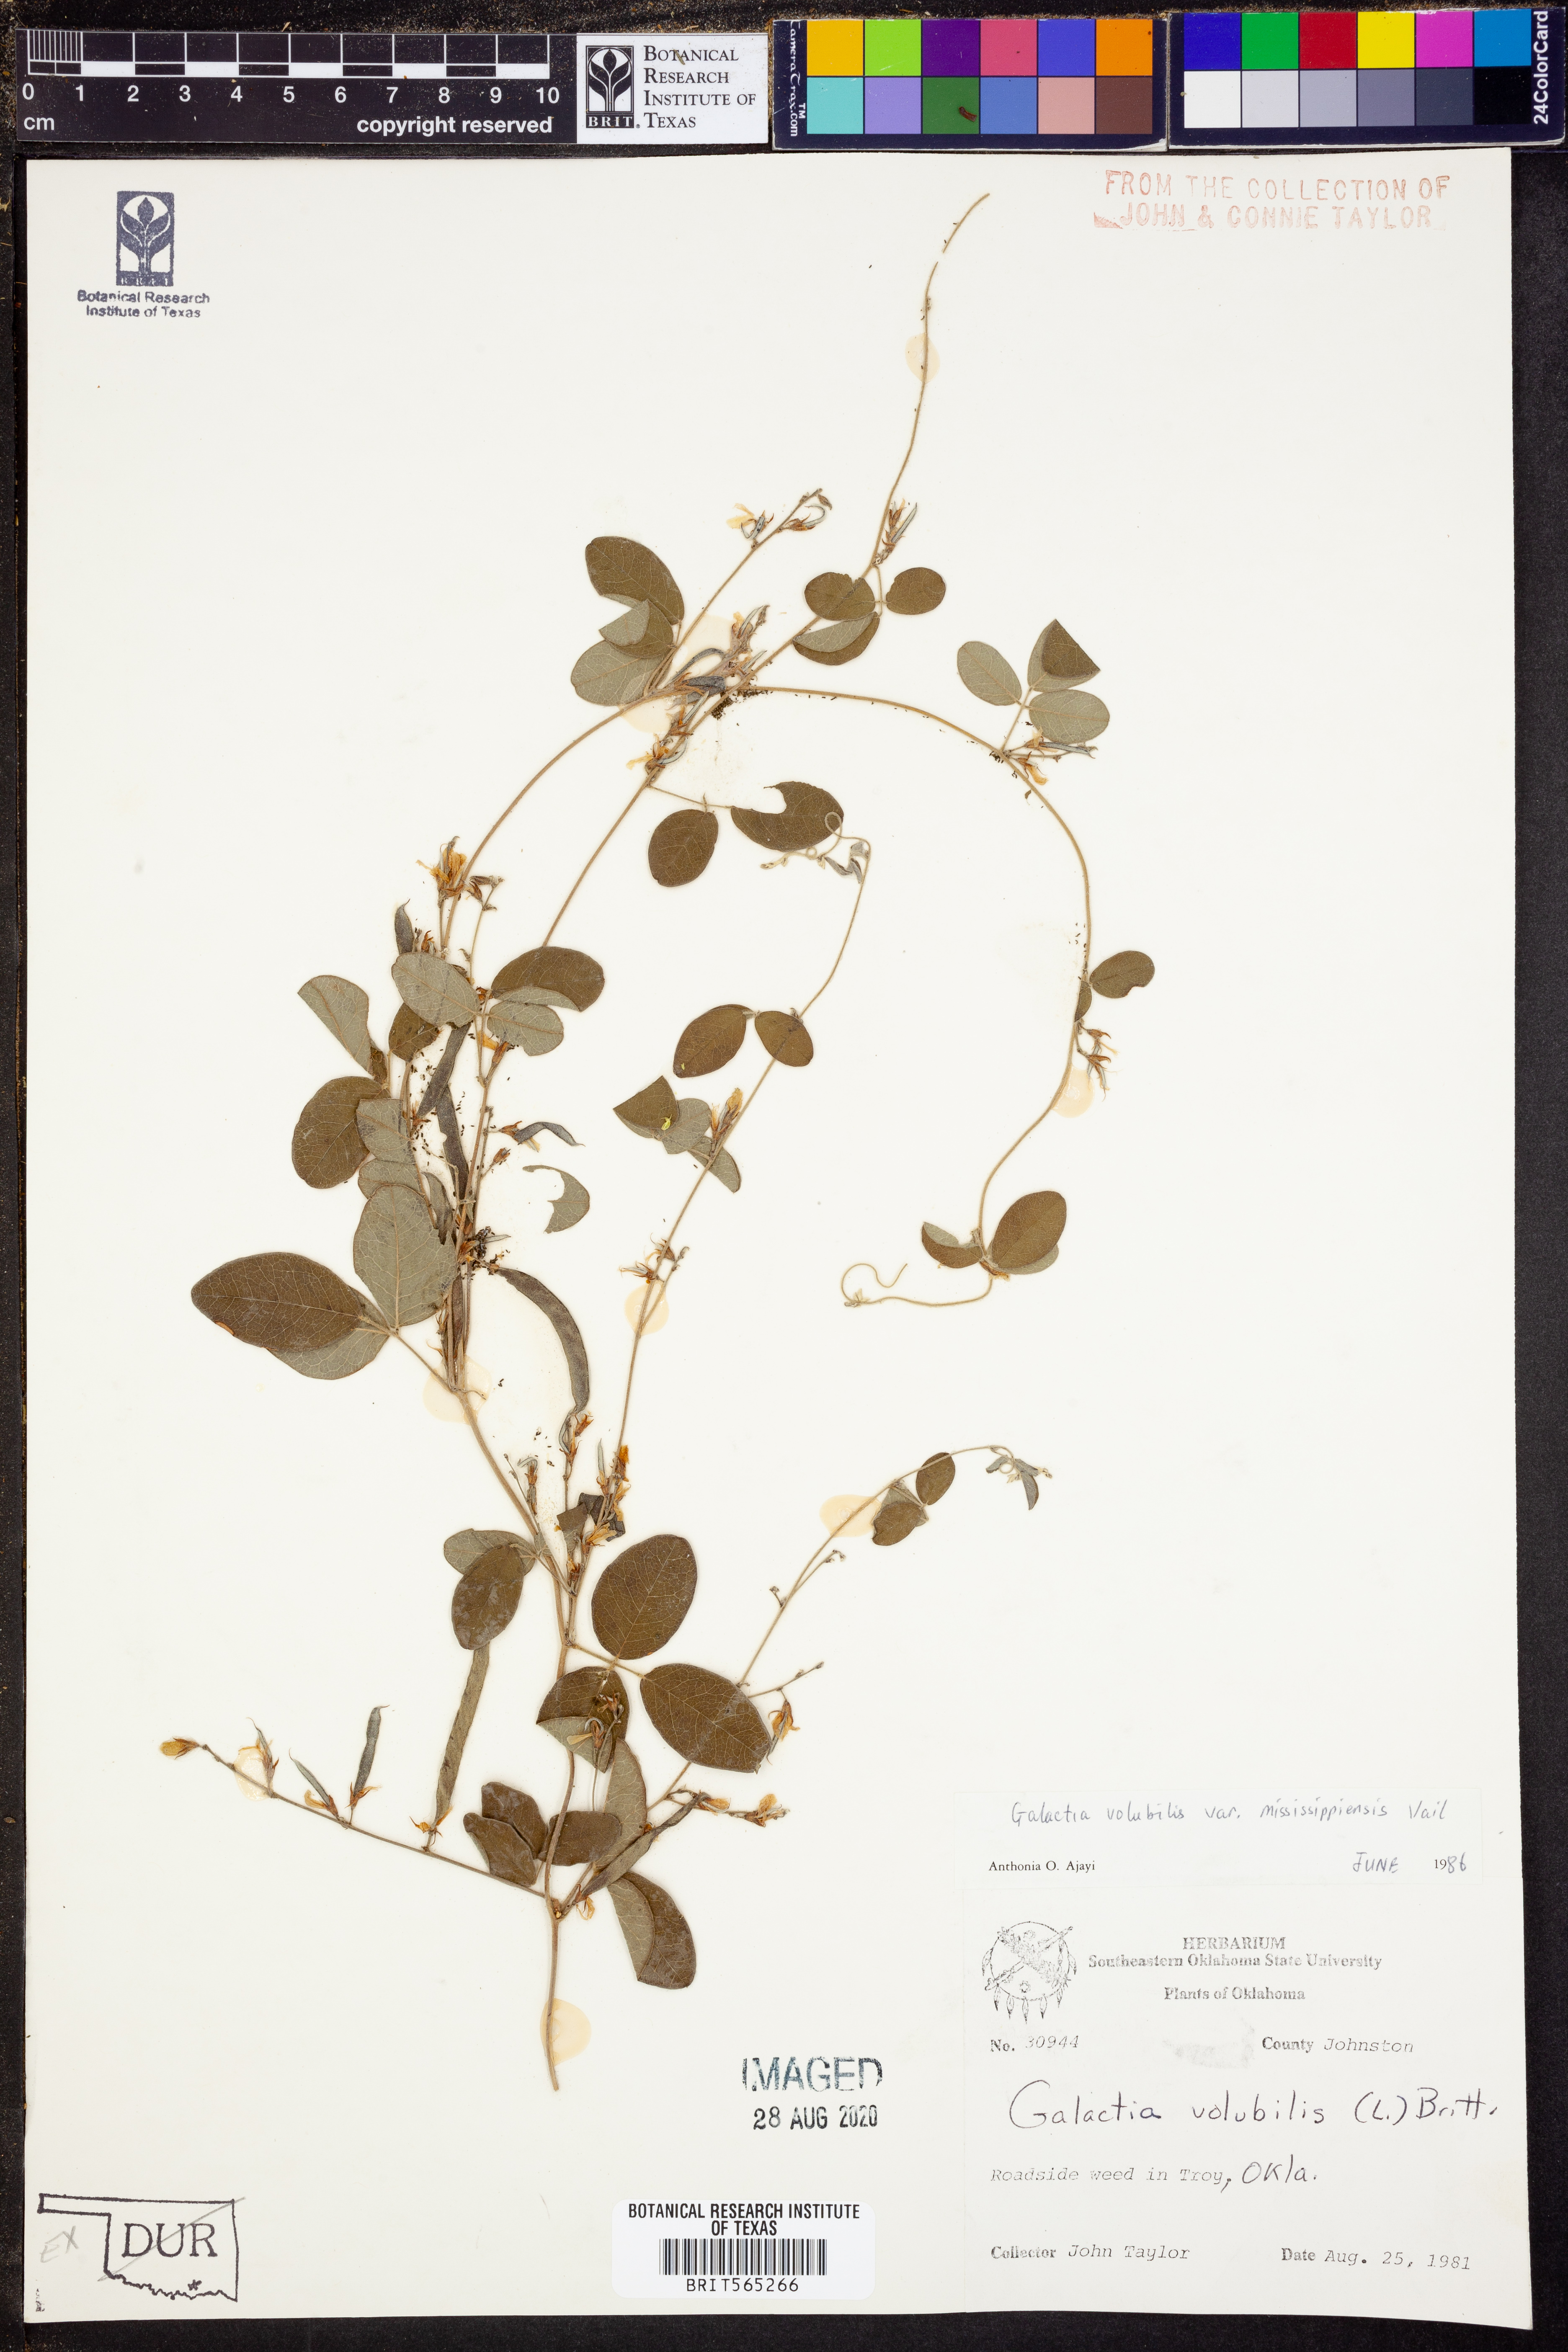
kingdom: Plantae
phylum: Tracheophyta
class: Magnoliopsida
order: Fabales
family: Fabaceae
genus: Galactia
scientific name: Galactia volubilis
